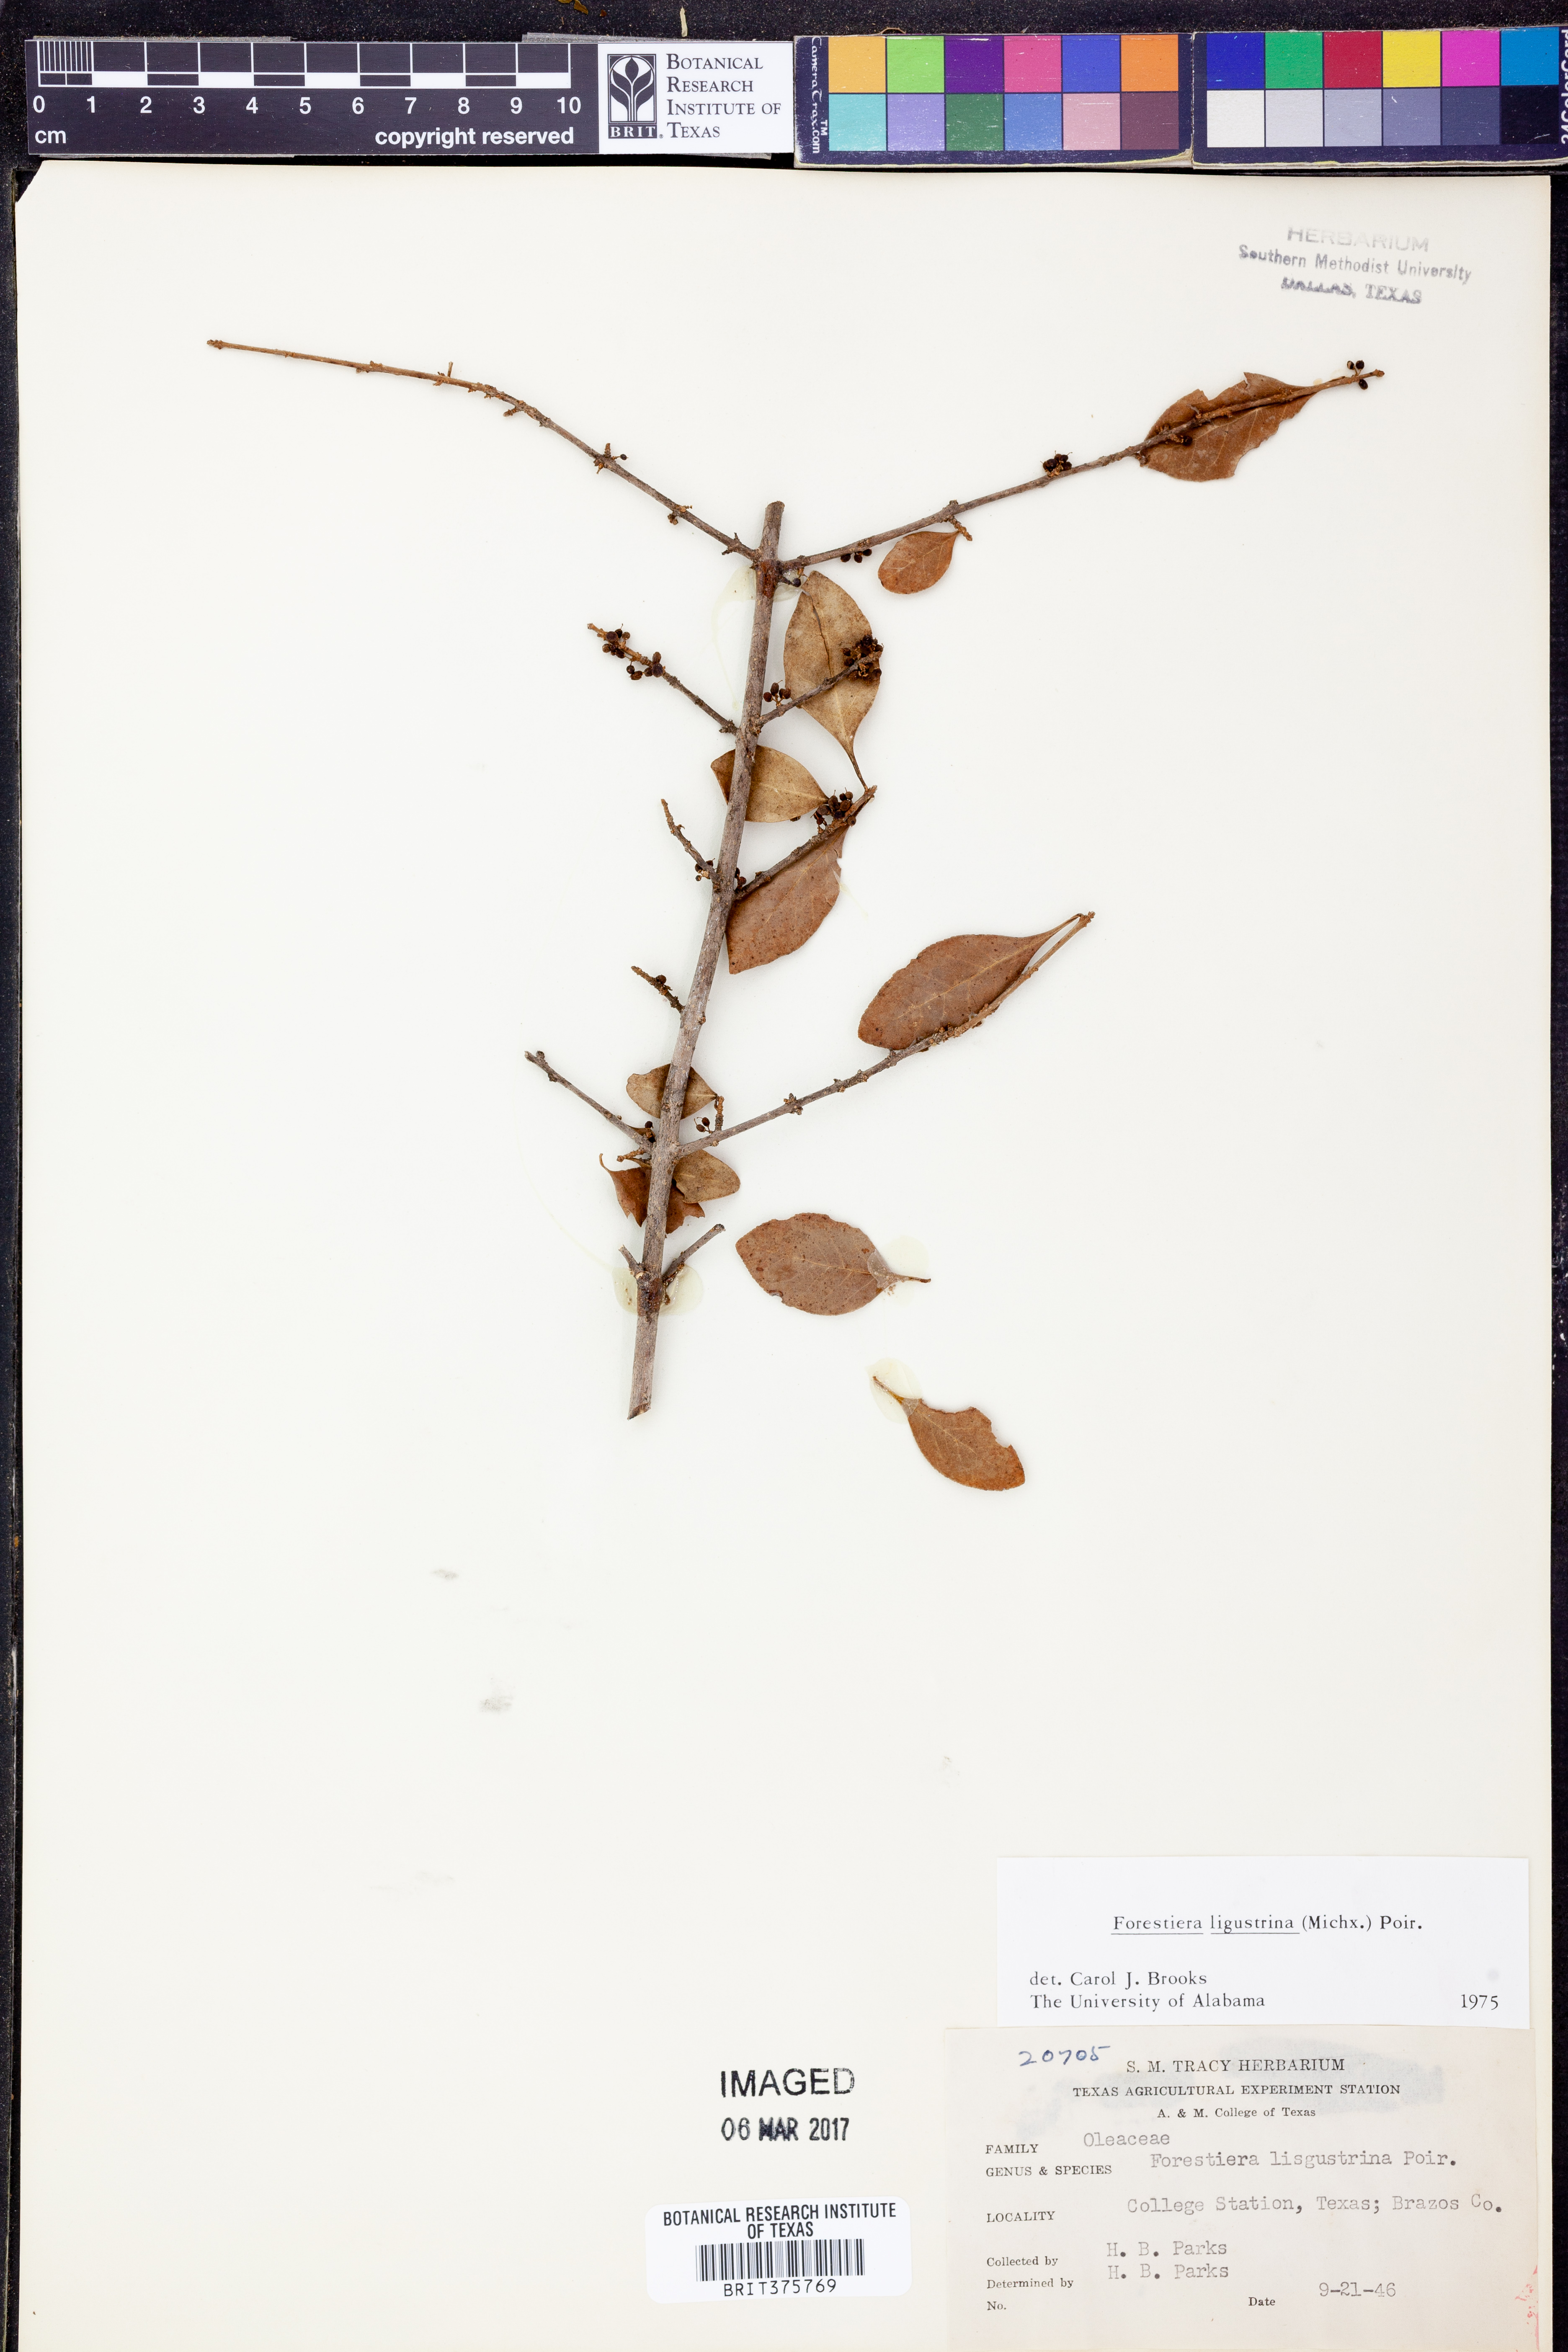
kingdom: Plantae
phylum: Tracheophyta
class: Magnoliopsida
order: Lamiales
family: Oleaceae
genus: Forestiera
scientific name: Forestiera ligustrina
